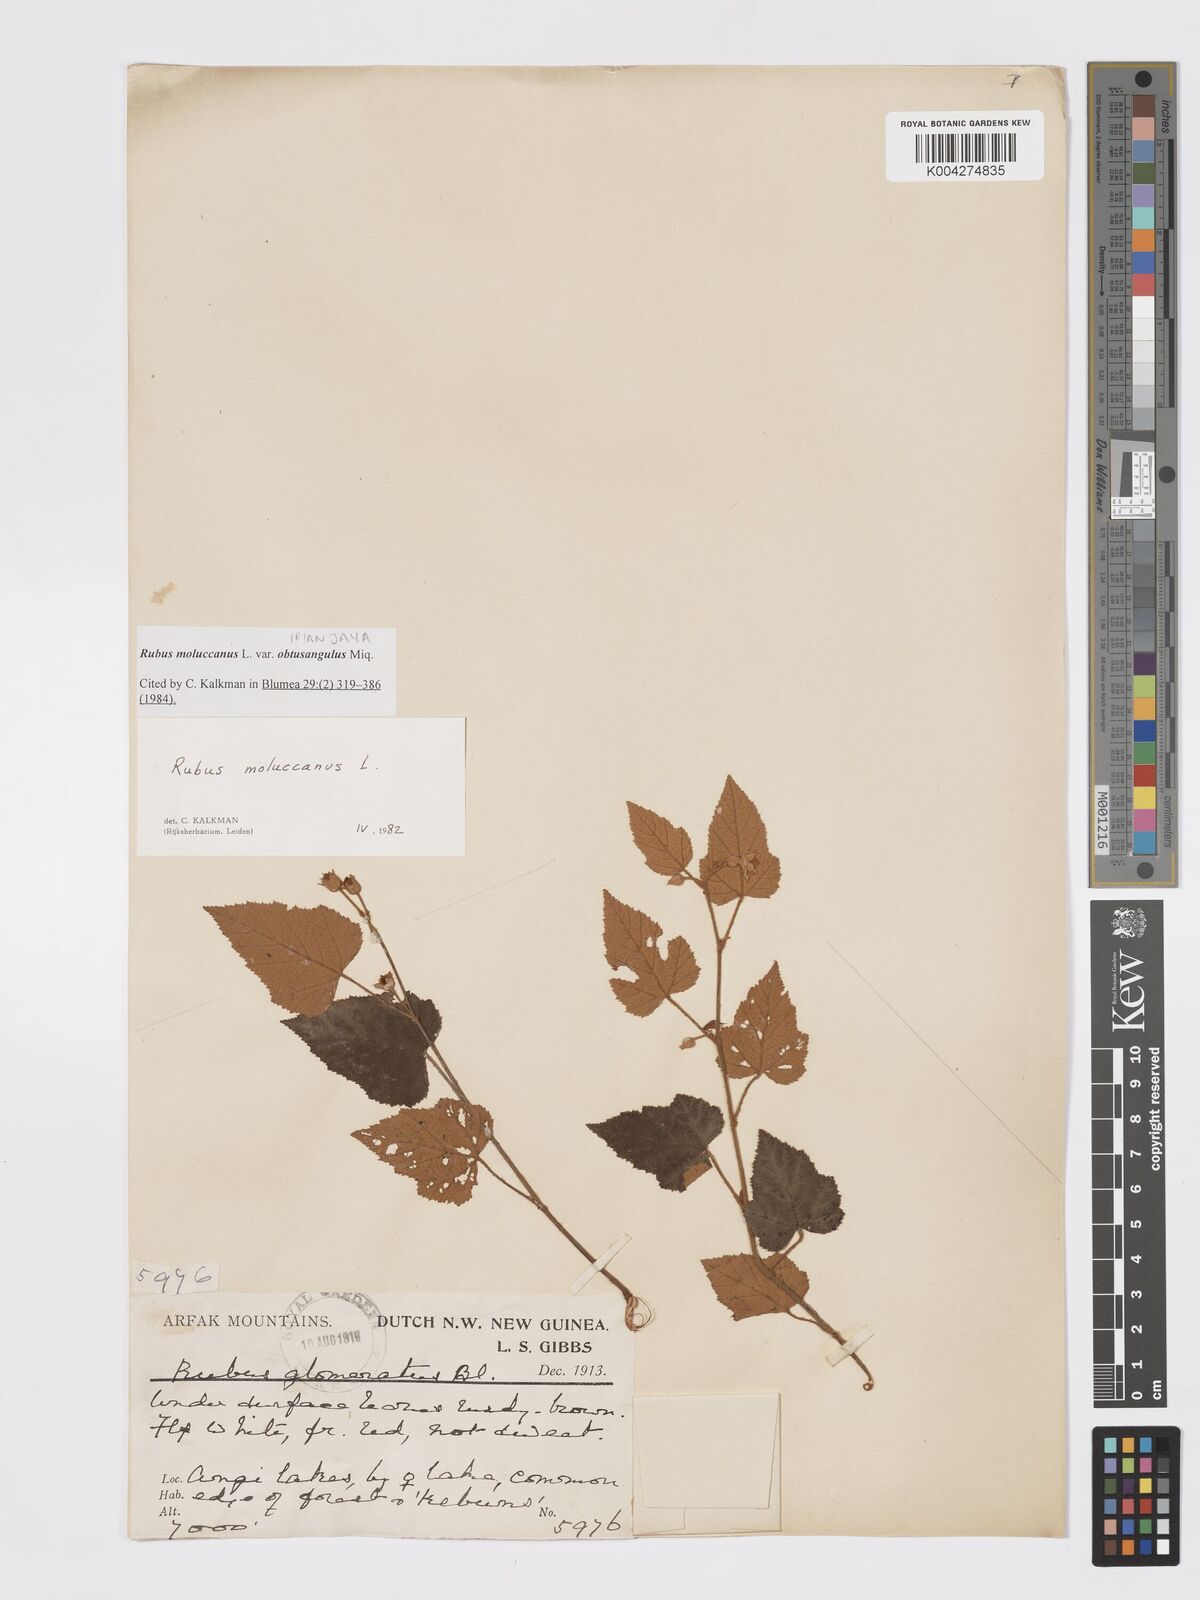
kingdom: Plantae
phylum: Tracheophyta
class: Magnoliopsida
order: Rosales
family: Rosaceae
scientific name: Rosaceae
